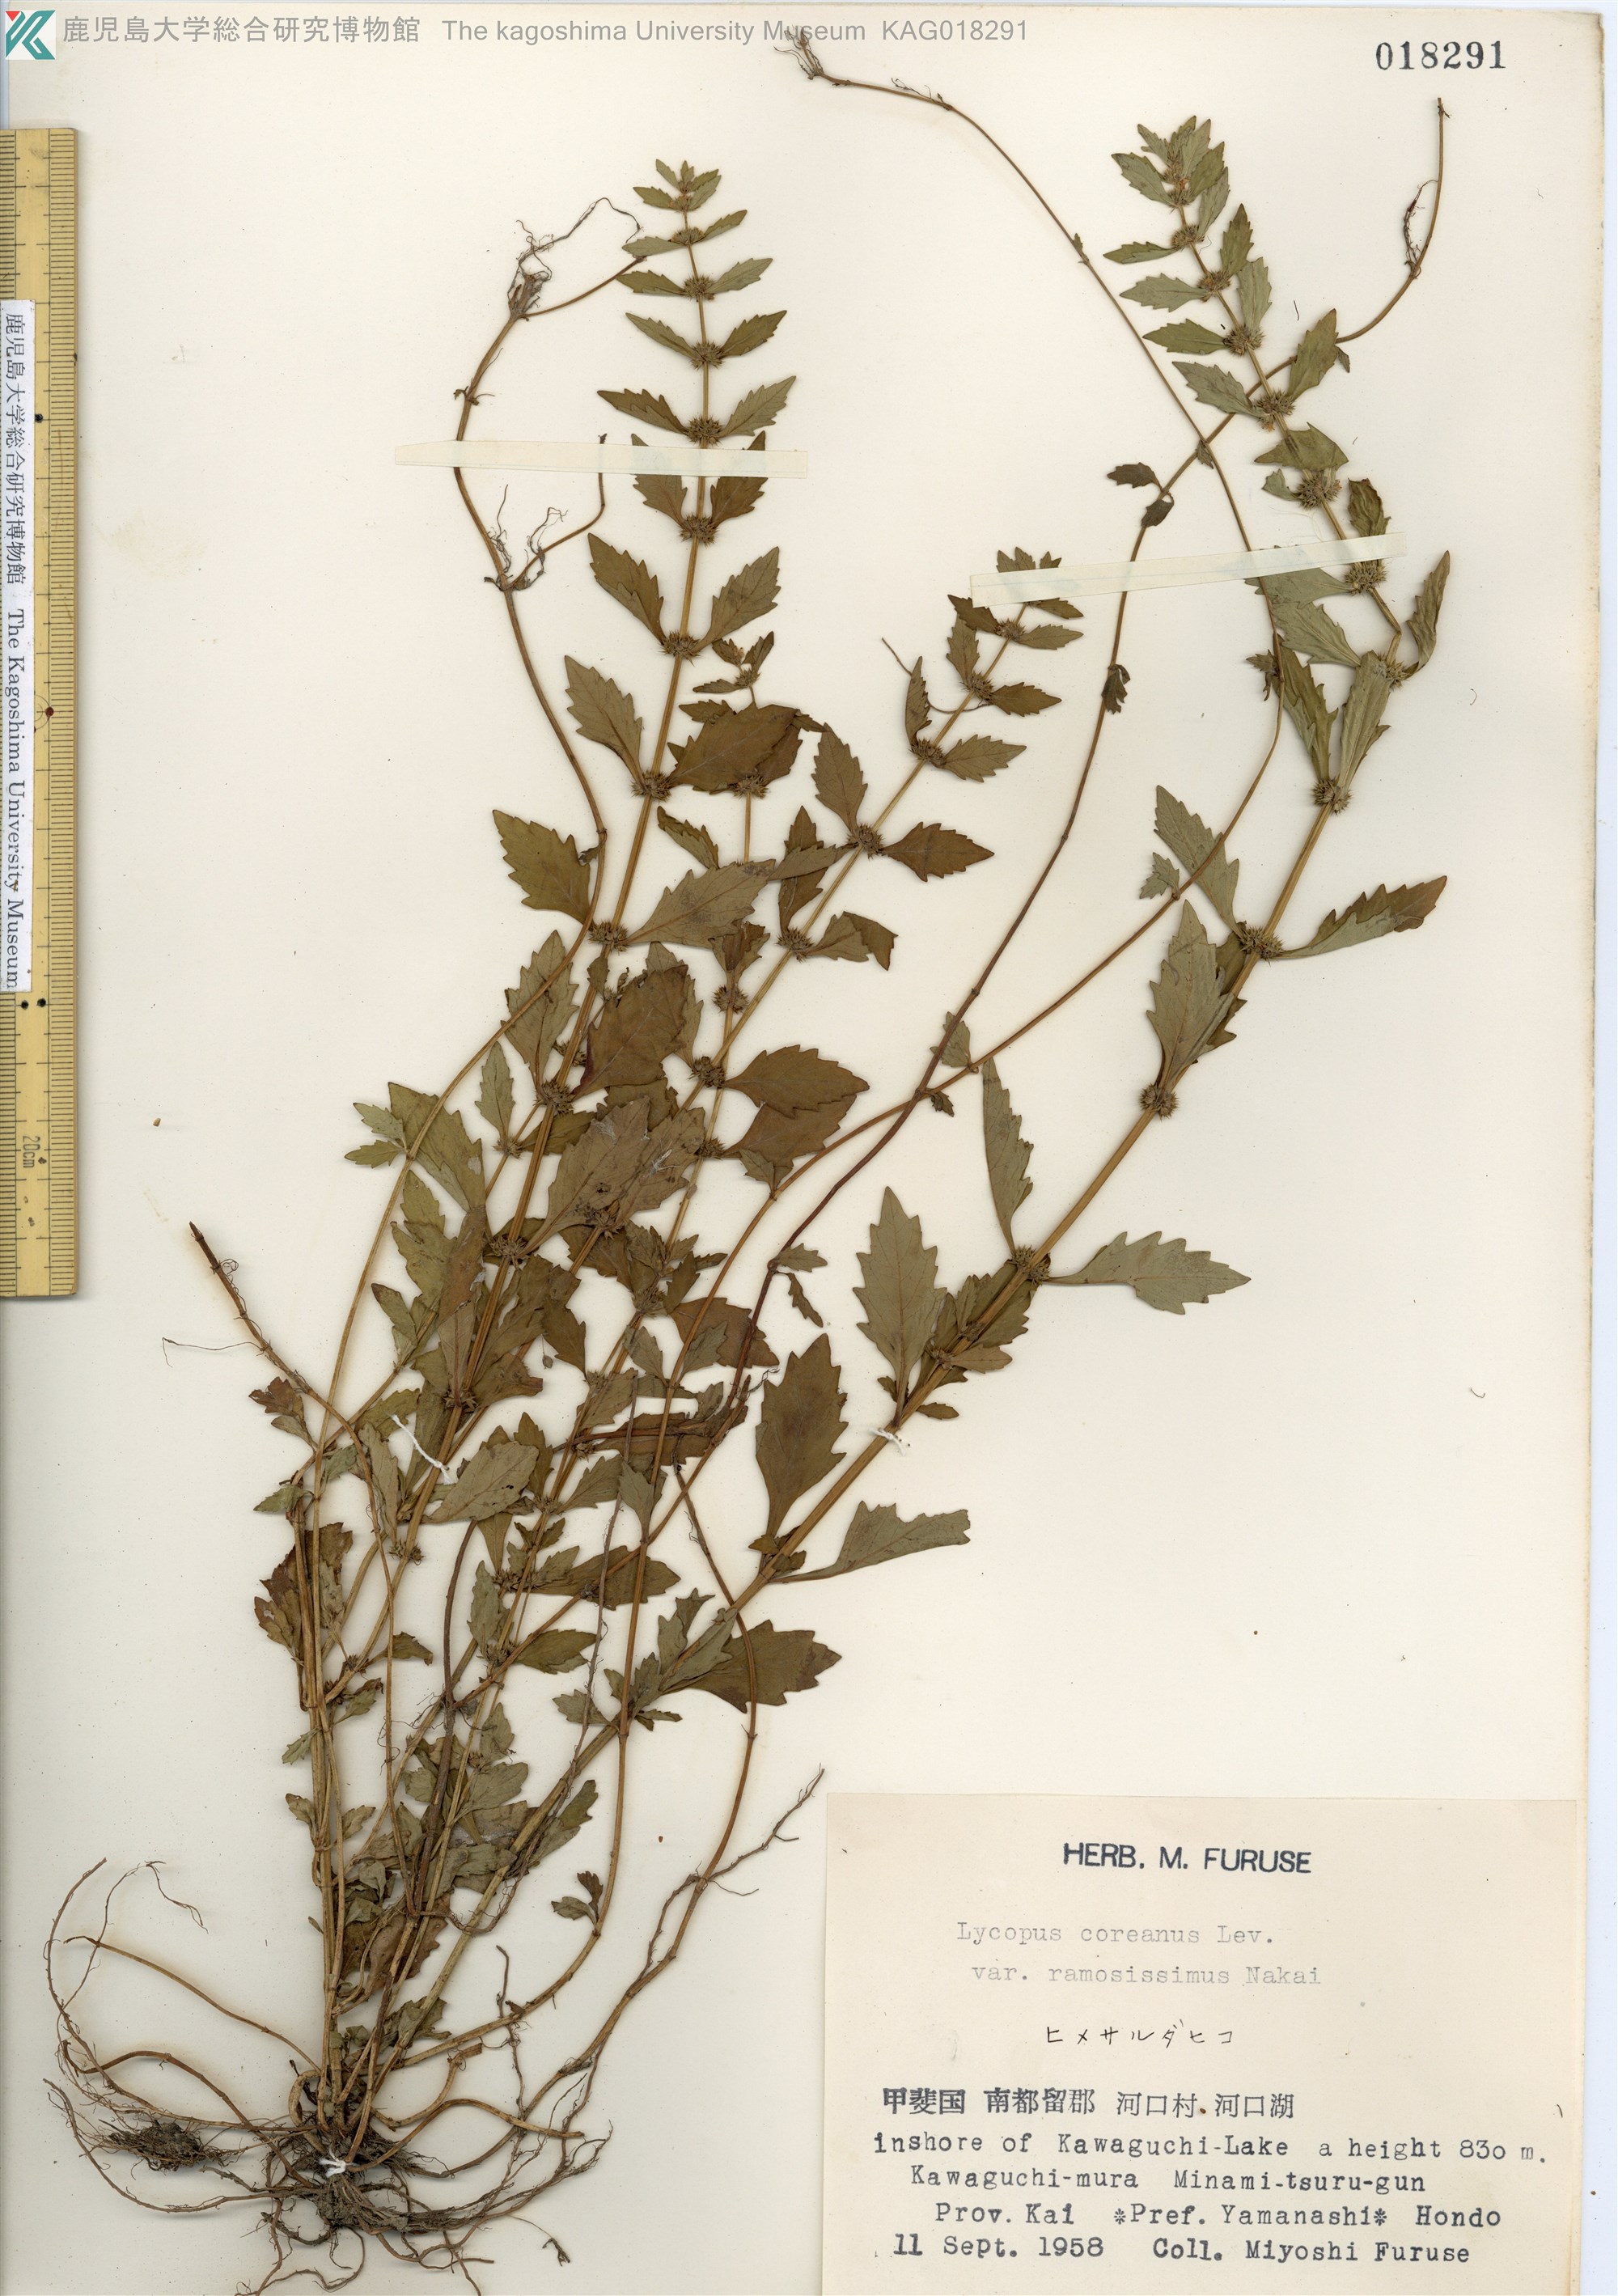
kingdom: Plantae
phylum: Tracheophyta
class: Magnoliopsida
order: Lamiales
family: Lamiaceae
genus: Lycopus
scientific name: Lycopus cavaleriei
